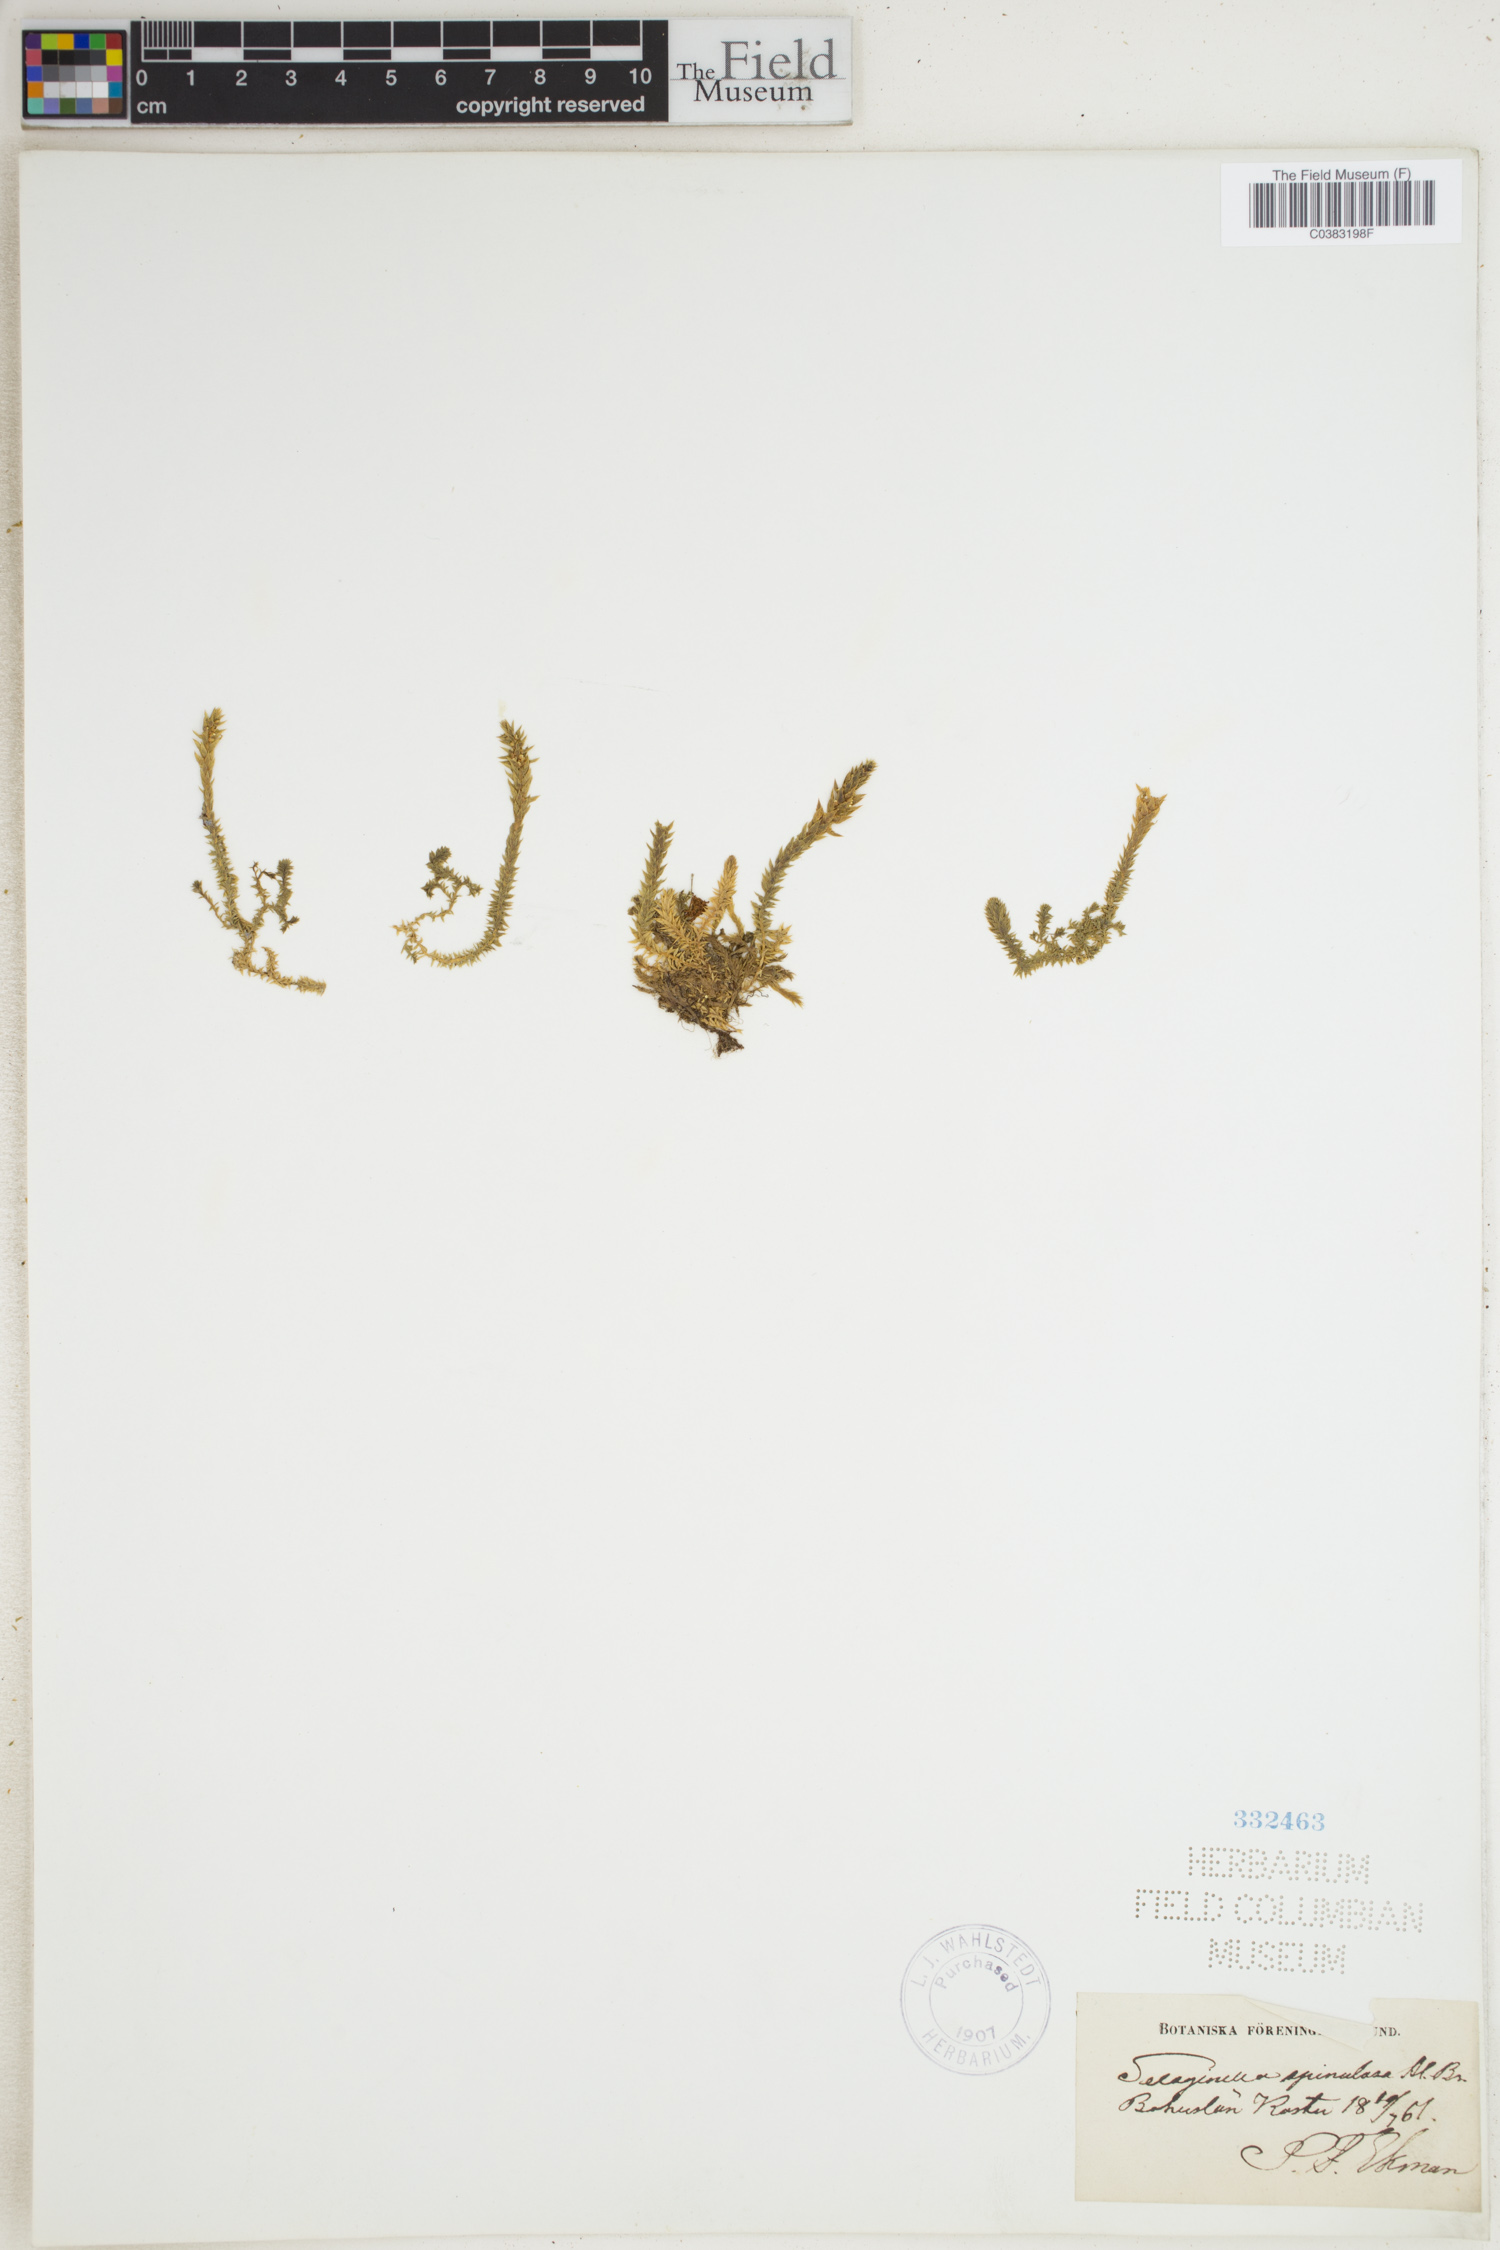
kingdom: Plantae
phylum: Tracheophyta
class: Lycopodiopsida
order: Selaginellales
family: Selaginellaceae
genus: Selaginella
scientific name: Selaginella selaginoides
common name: Prickly mountain-moss
